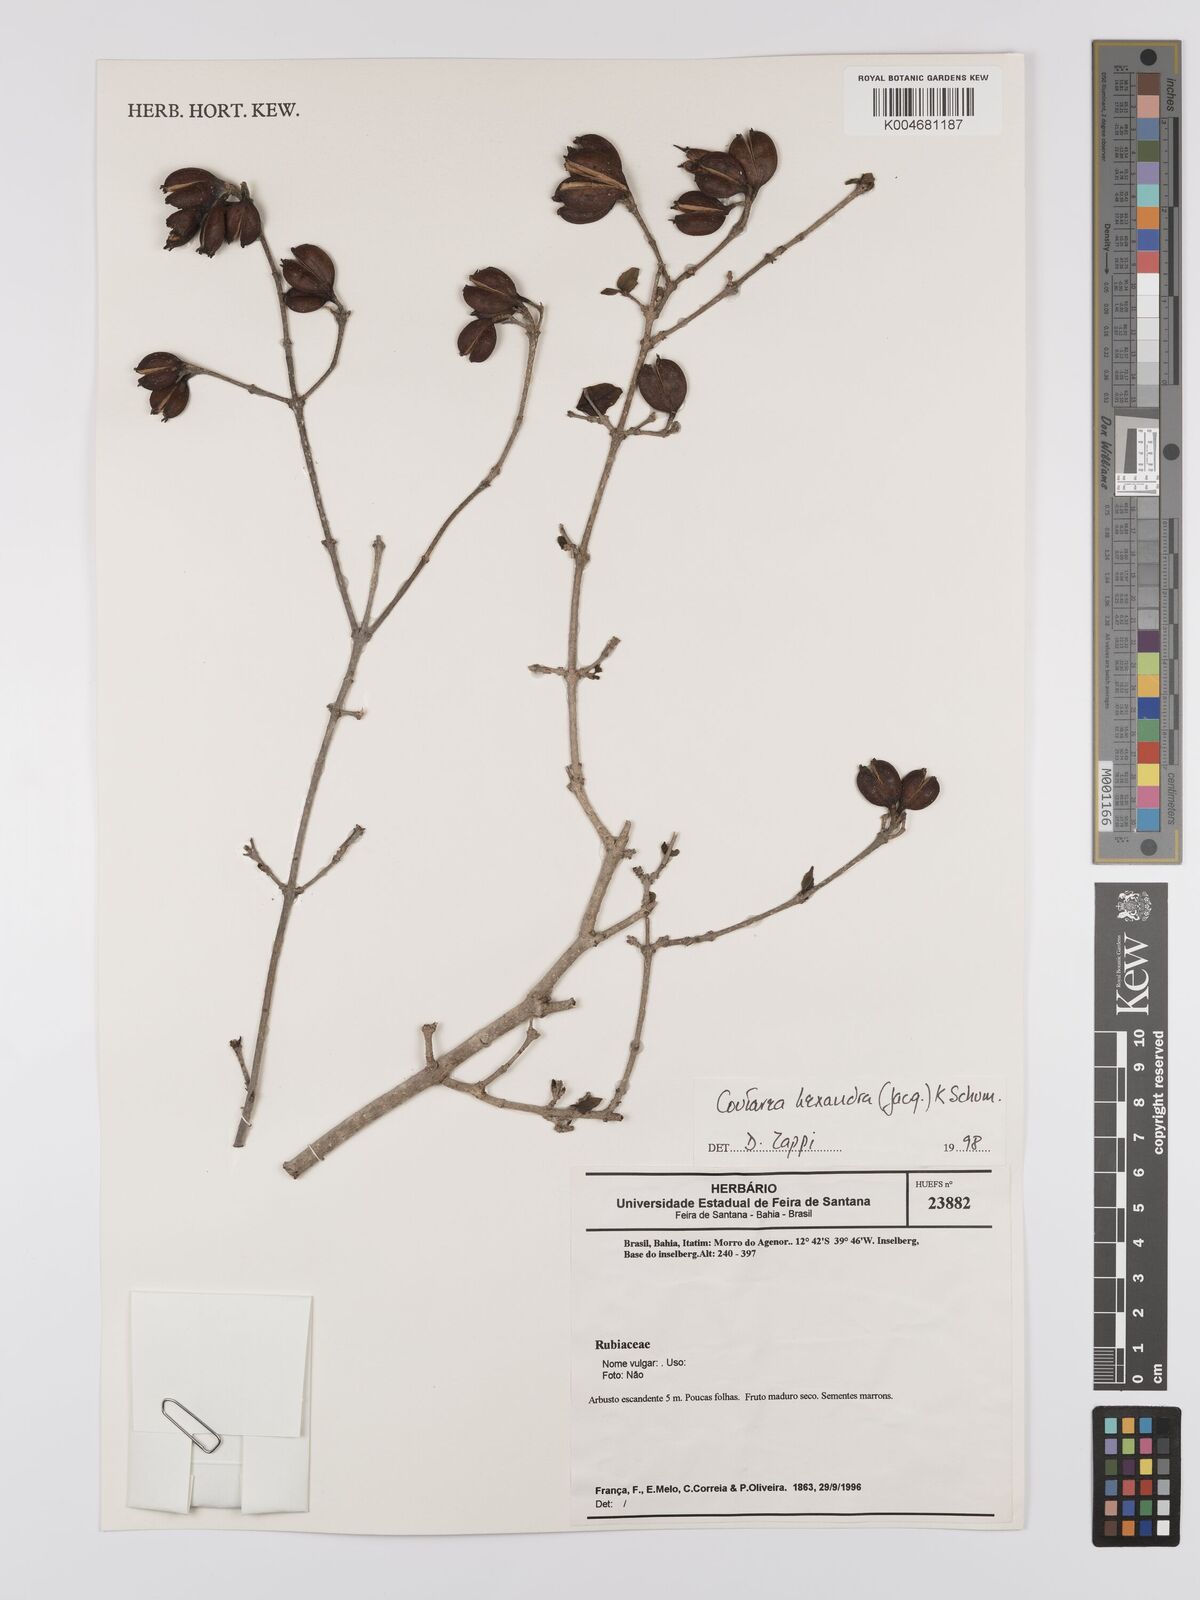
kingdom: Plantae
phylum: Tracheophyta
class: Magnoliopsida
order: Gentianales
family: Rubiaceae
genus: Coutarea
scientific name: Coutarea hexandra
